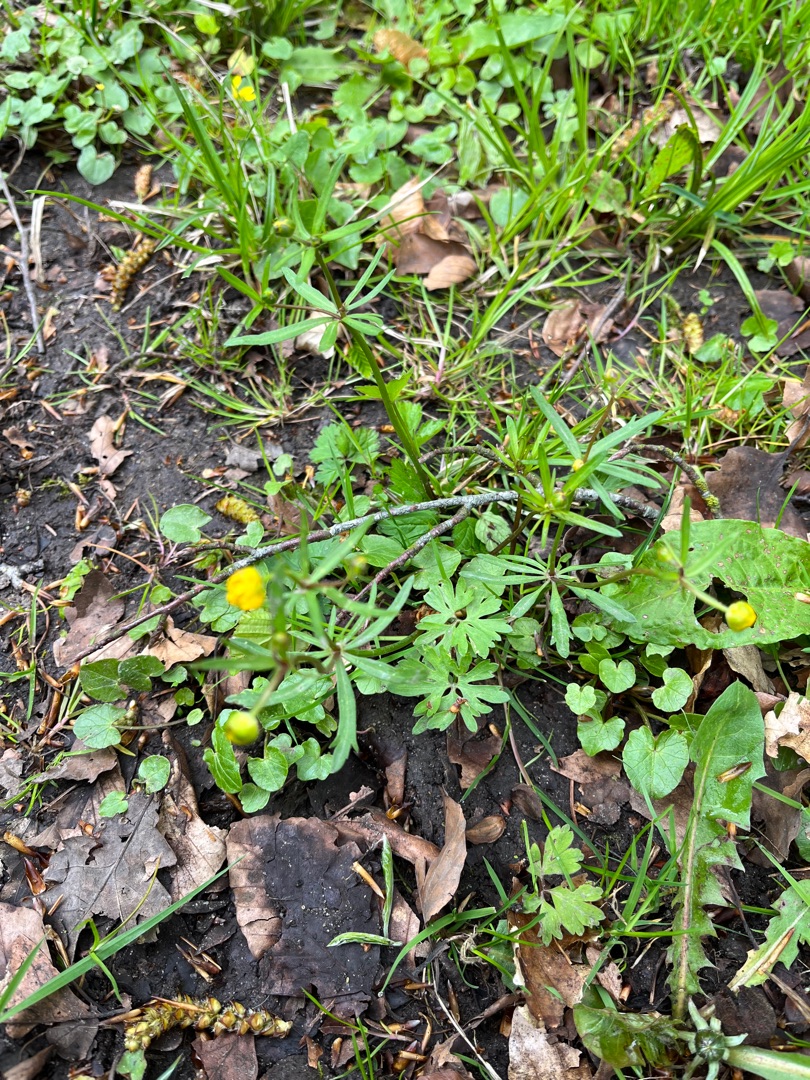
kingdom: Plantae
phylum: Tracheophyta
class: Magnoliopsida
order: Ranunculales
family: Ranunculaceae
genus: Ranunculus
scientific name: Ranunculus auricomus
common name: Nyrebladet ranunkel
